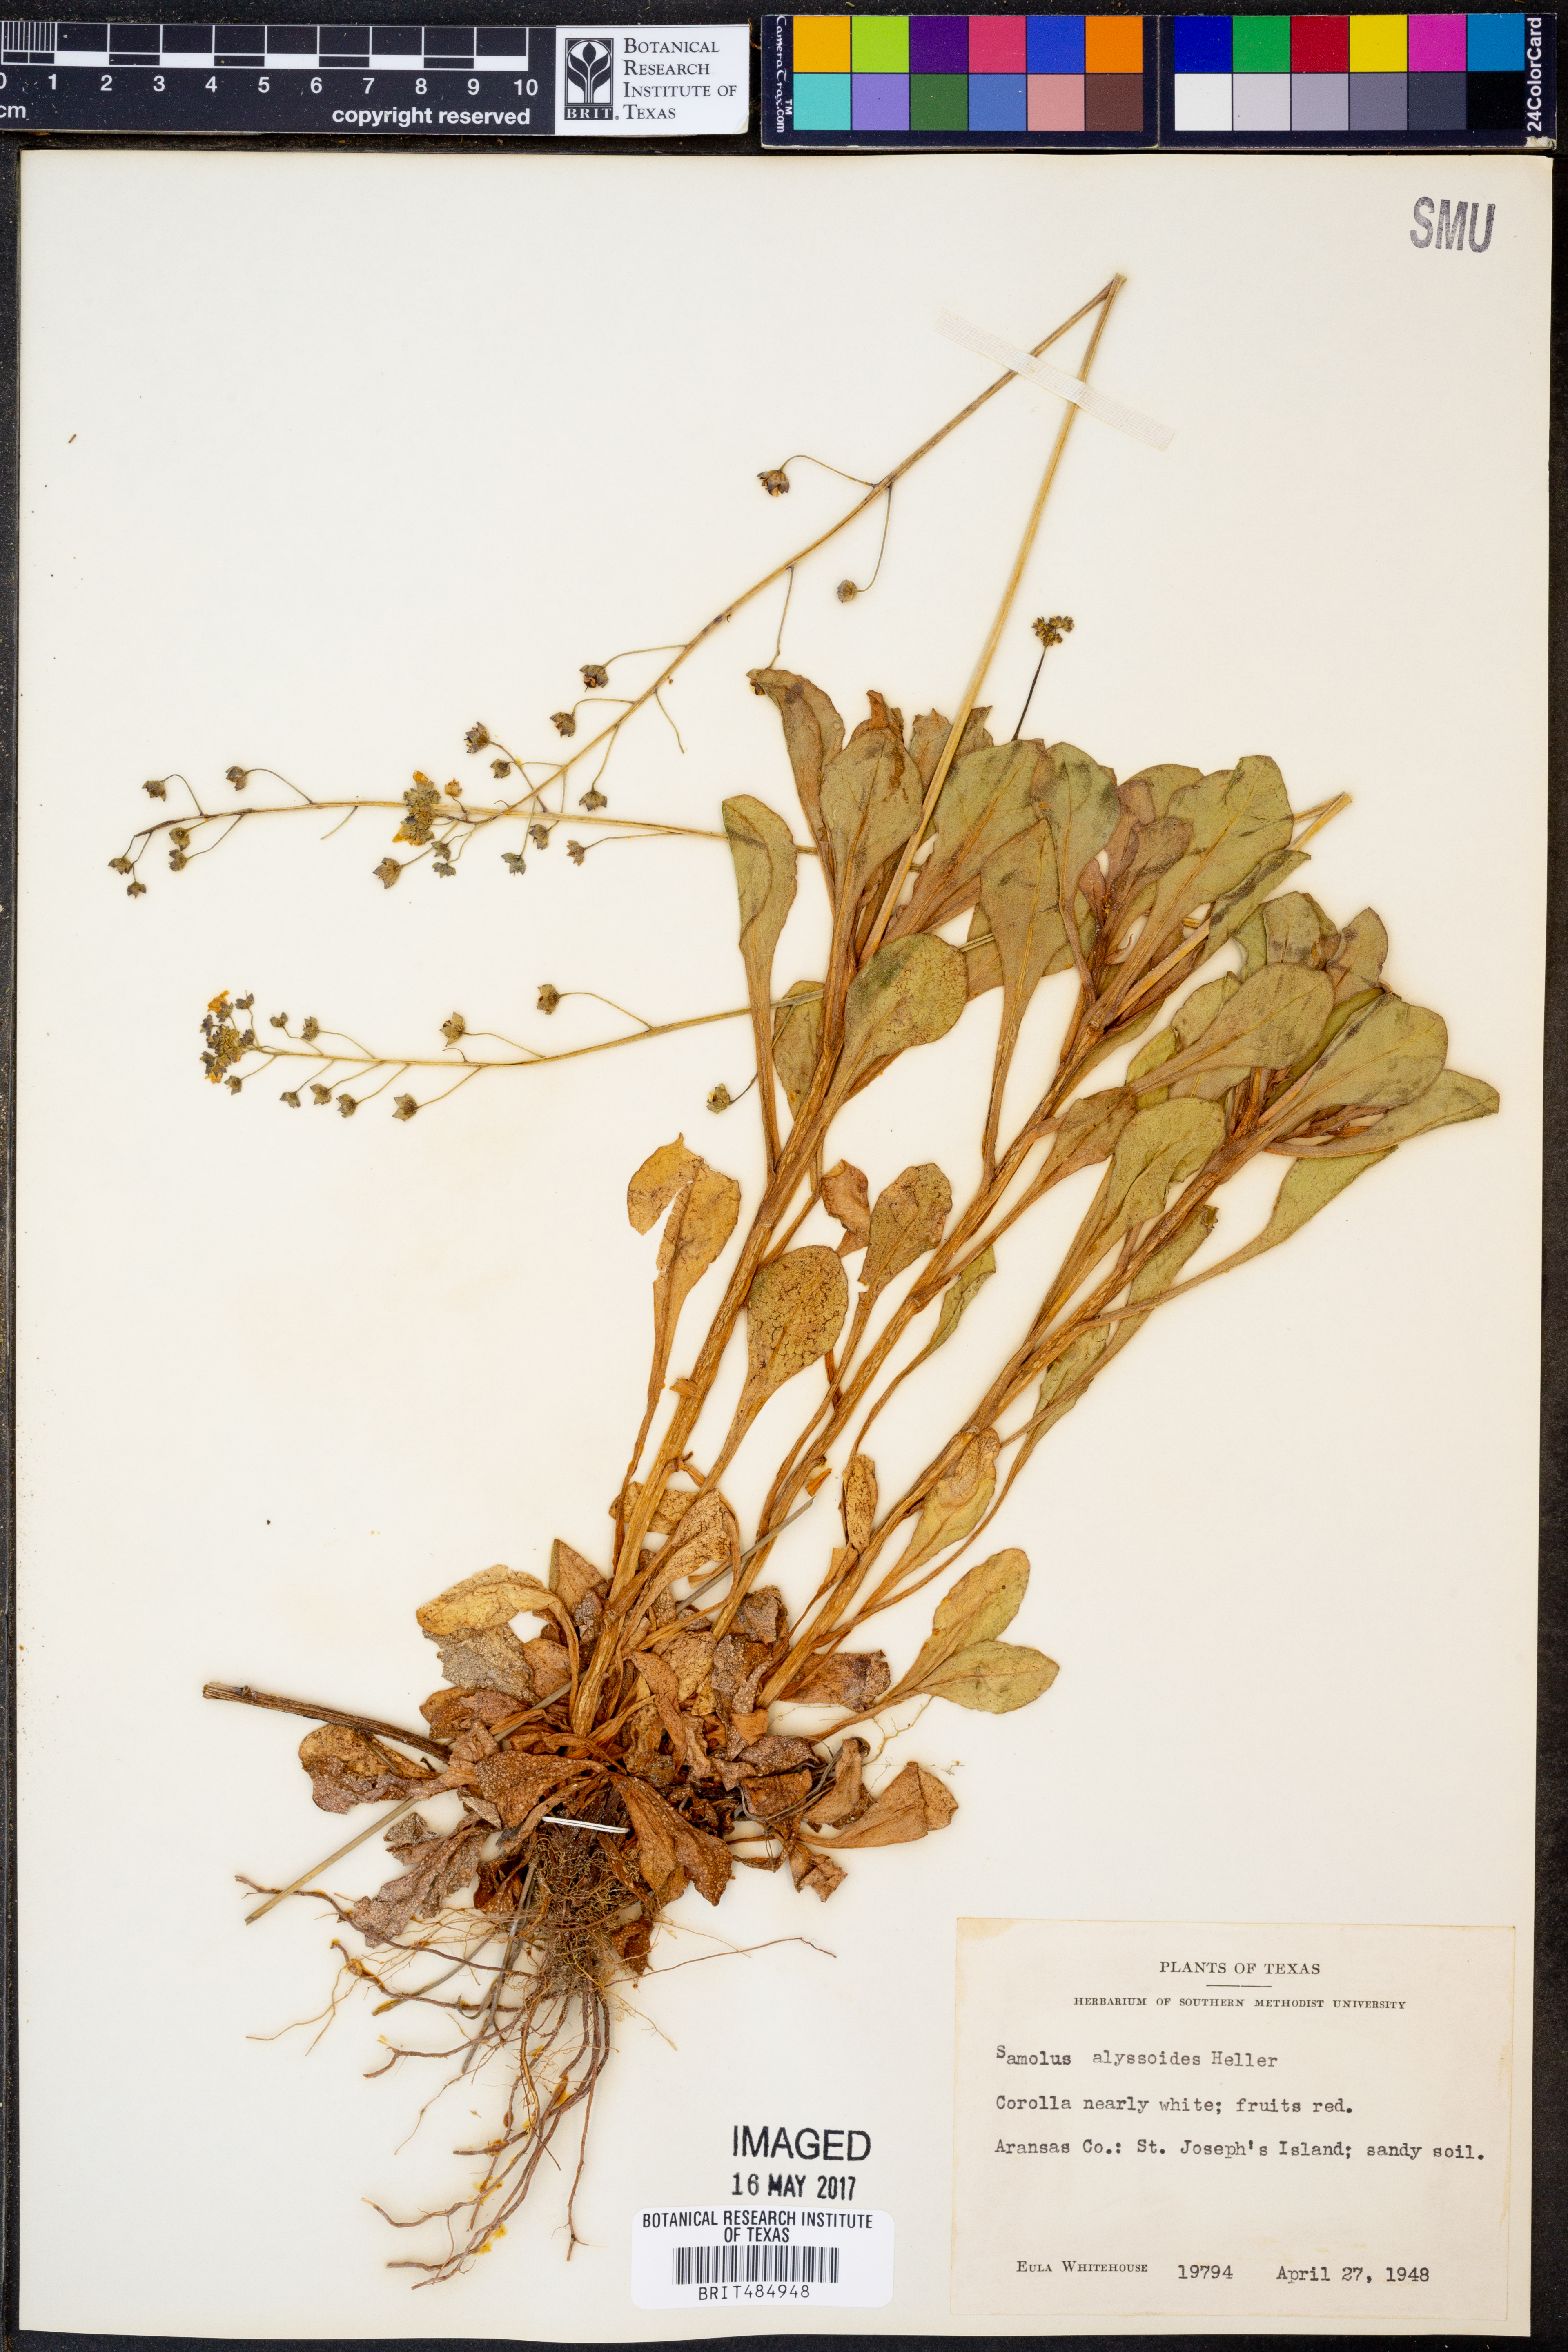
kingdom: Plantae
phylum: Tracheophyta
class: Magnoliopsida
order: Ericales
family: Primulaceae
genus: Samolus
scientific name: Samolus ebracteatus
